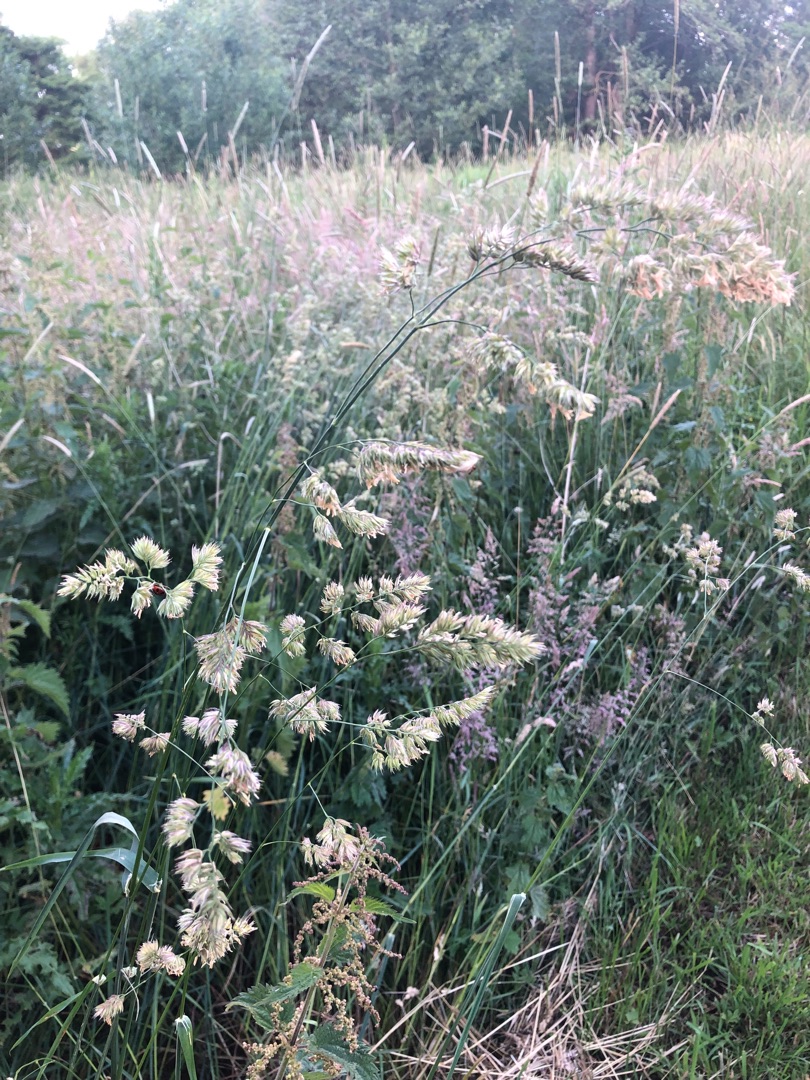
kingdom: Plantae
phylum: Tracheophyta
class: Liliopsida
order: Poales
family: Poaceae
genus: Dactylis
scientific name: Dactylis glomerata
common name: Almindelig hundegræs
